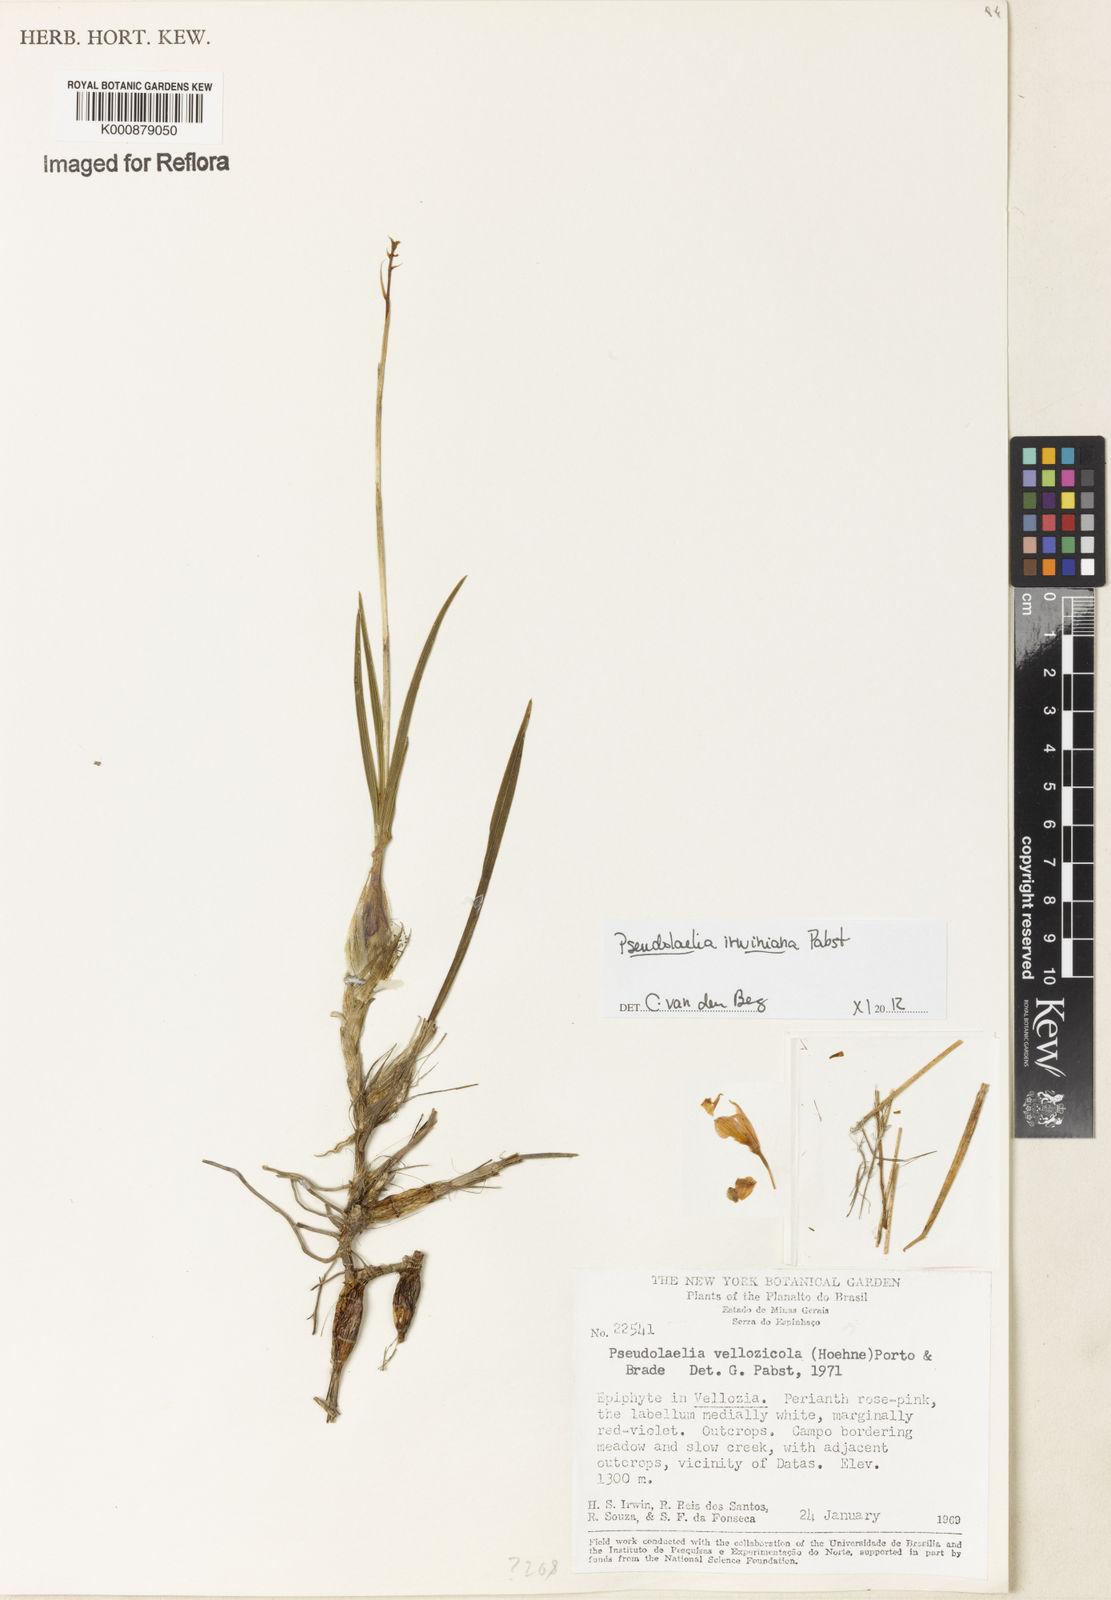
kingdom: Plantae
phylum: Tracheophyta
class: Liliopsida
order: Asparagales
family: Orchidaceae
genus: Pseudolaelia
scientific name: Pseudolaelia irwiniana
